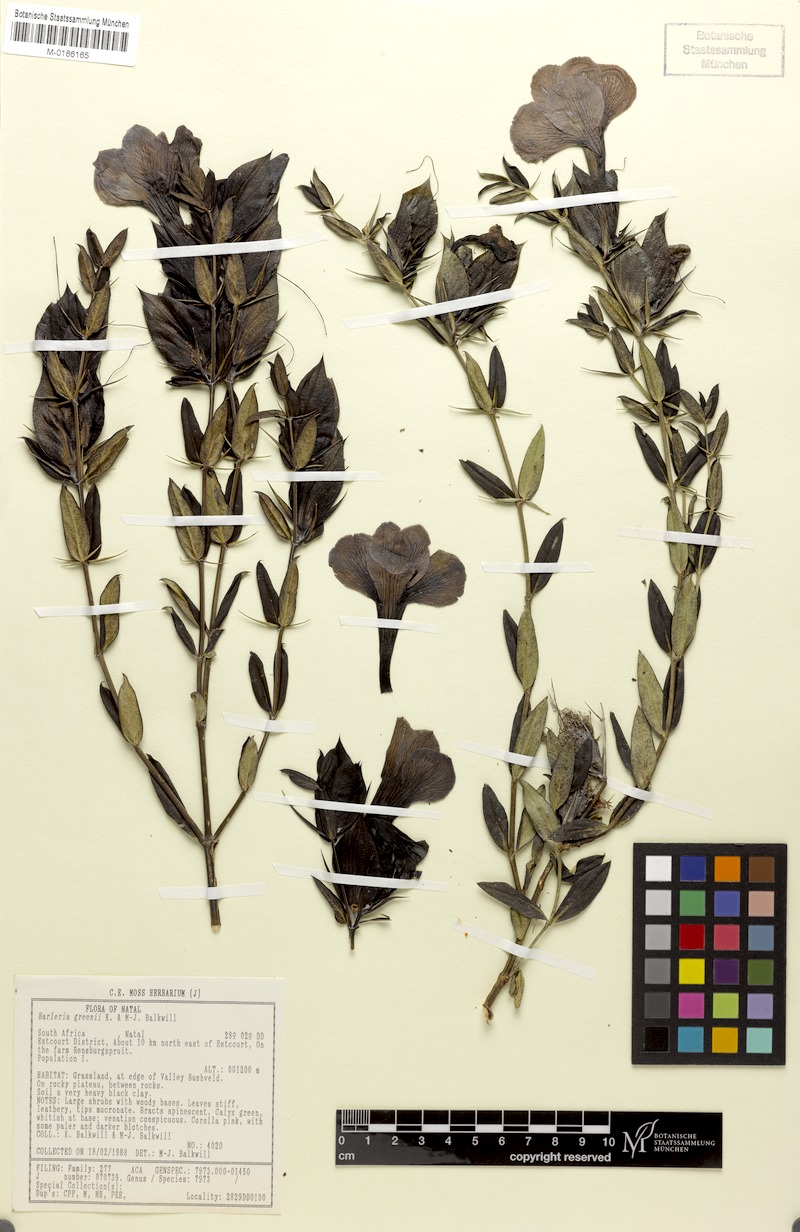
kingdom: Plantae
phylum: Tracheophyta
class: Magnoliopsida
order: Lamiales
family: Acanthaceae
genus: Barleria
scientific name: Barleria greenii
